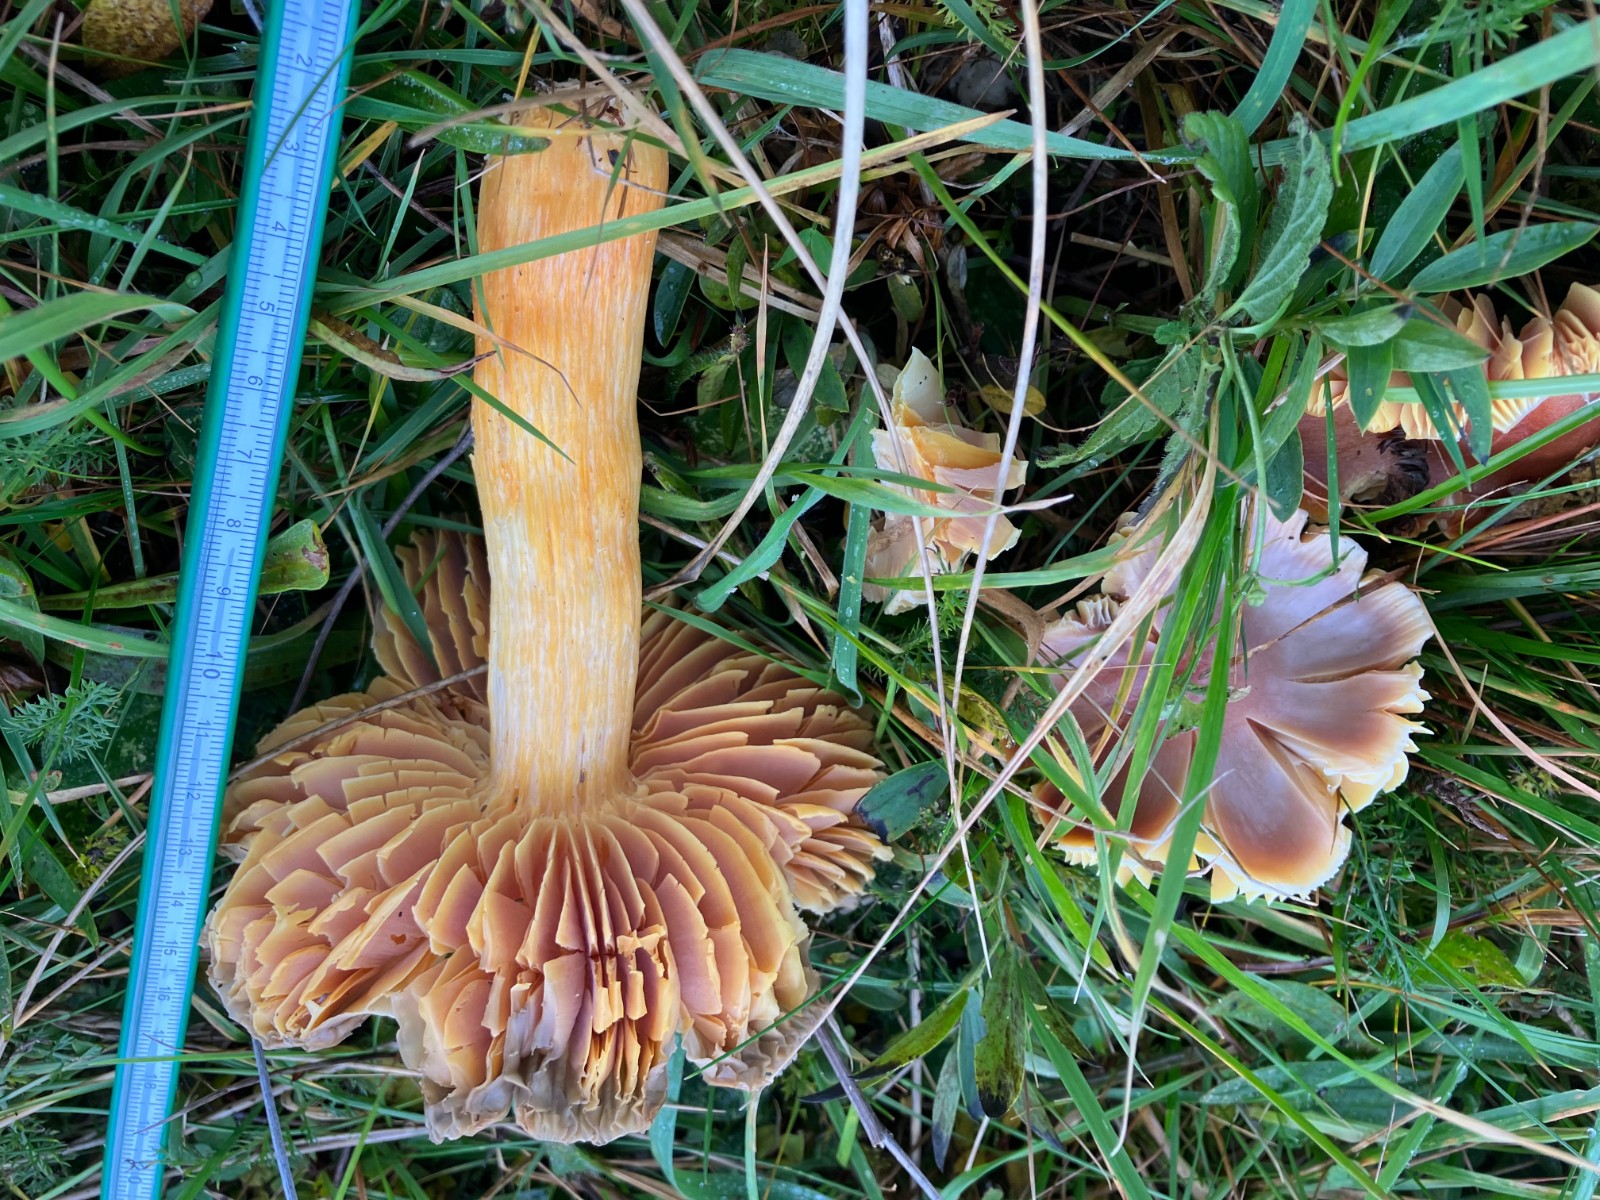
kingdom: Fungi
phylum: Basidiomycota
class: Agaricomycetes
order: Agaricales
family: Hygrophoraceae
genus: Hygrocybe
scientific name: Hygrocybe punicea
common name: skarlagen-vokshat
